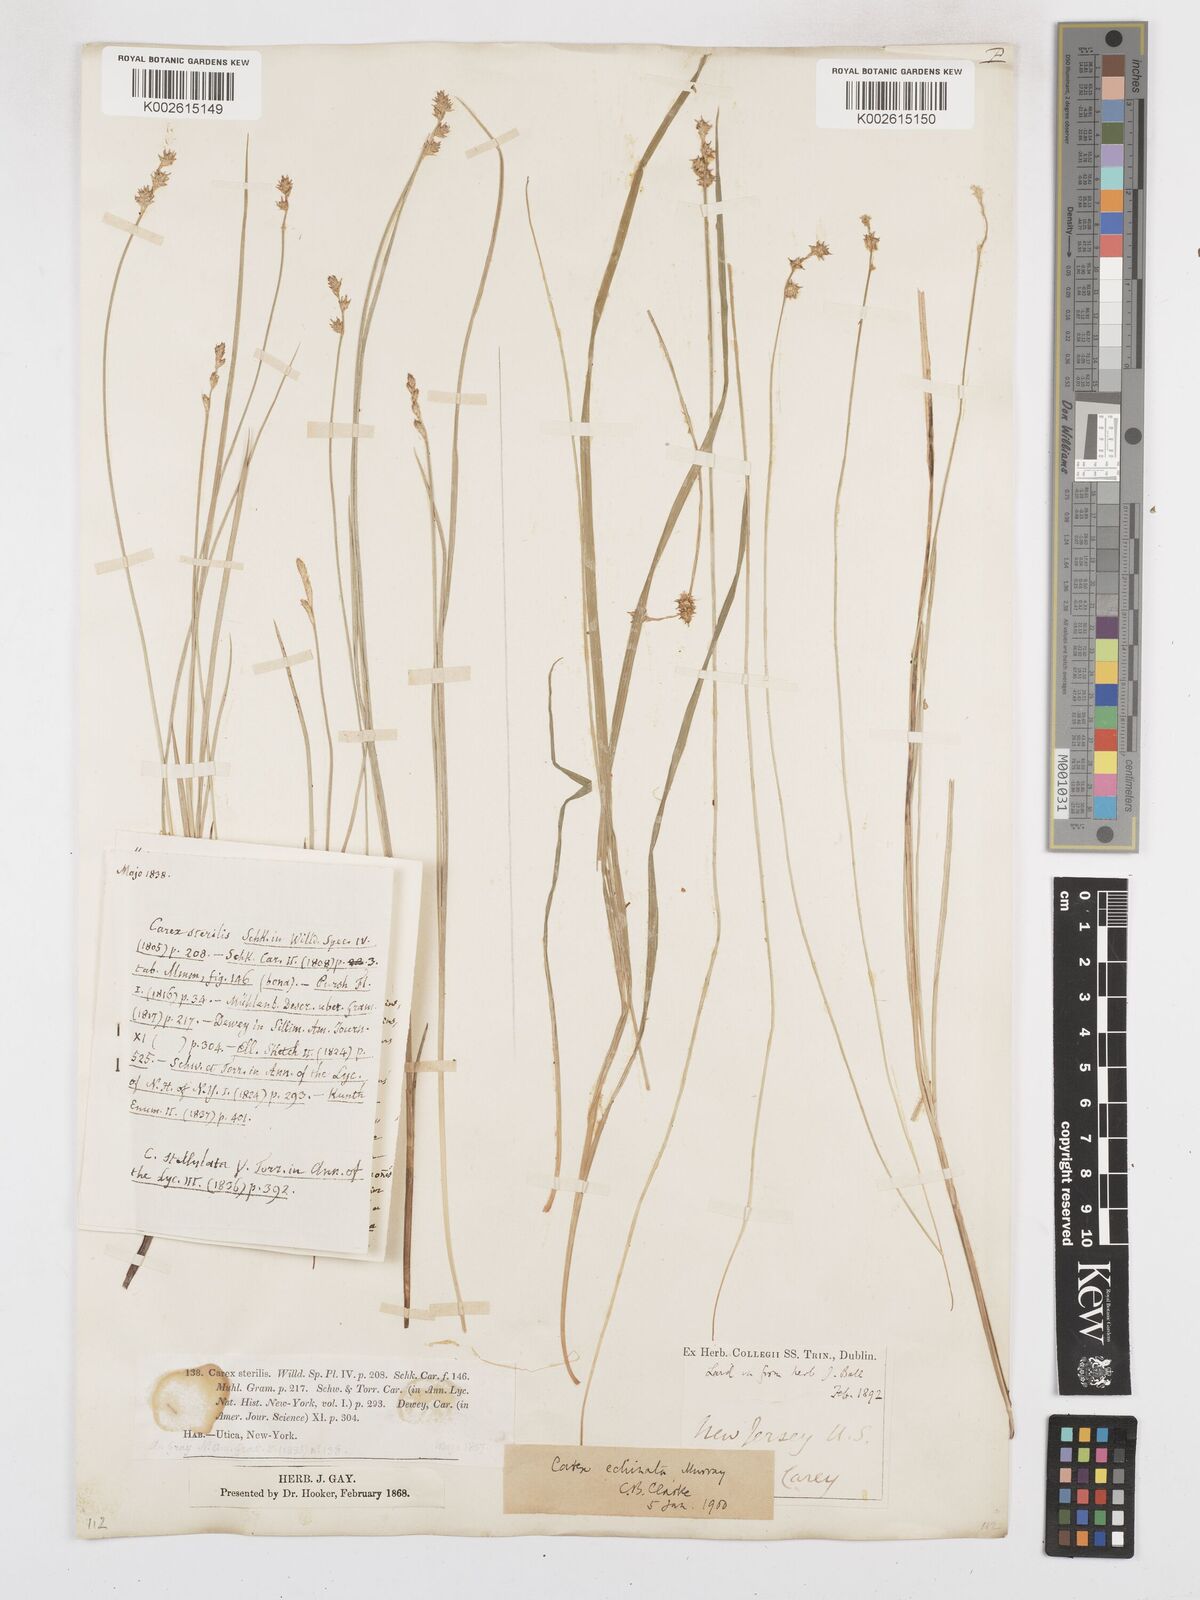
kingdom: Plantae
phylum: Tracheophyta
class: Liliopsida
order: Poales
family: Cyperaceae
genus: Carex
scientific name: Carex echinata
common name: Star sedge
